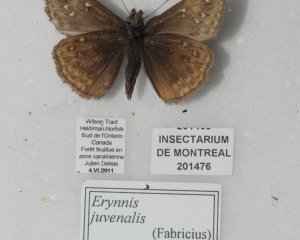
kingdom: Animalia
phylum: Arthropoda
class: Insecta
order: Lepidoptera
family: Hesperiidae
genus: Gesta
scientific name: Gesta
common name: Juvenal's Duskywing
